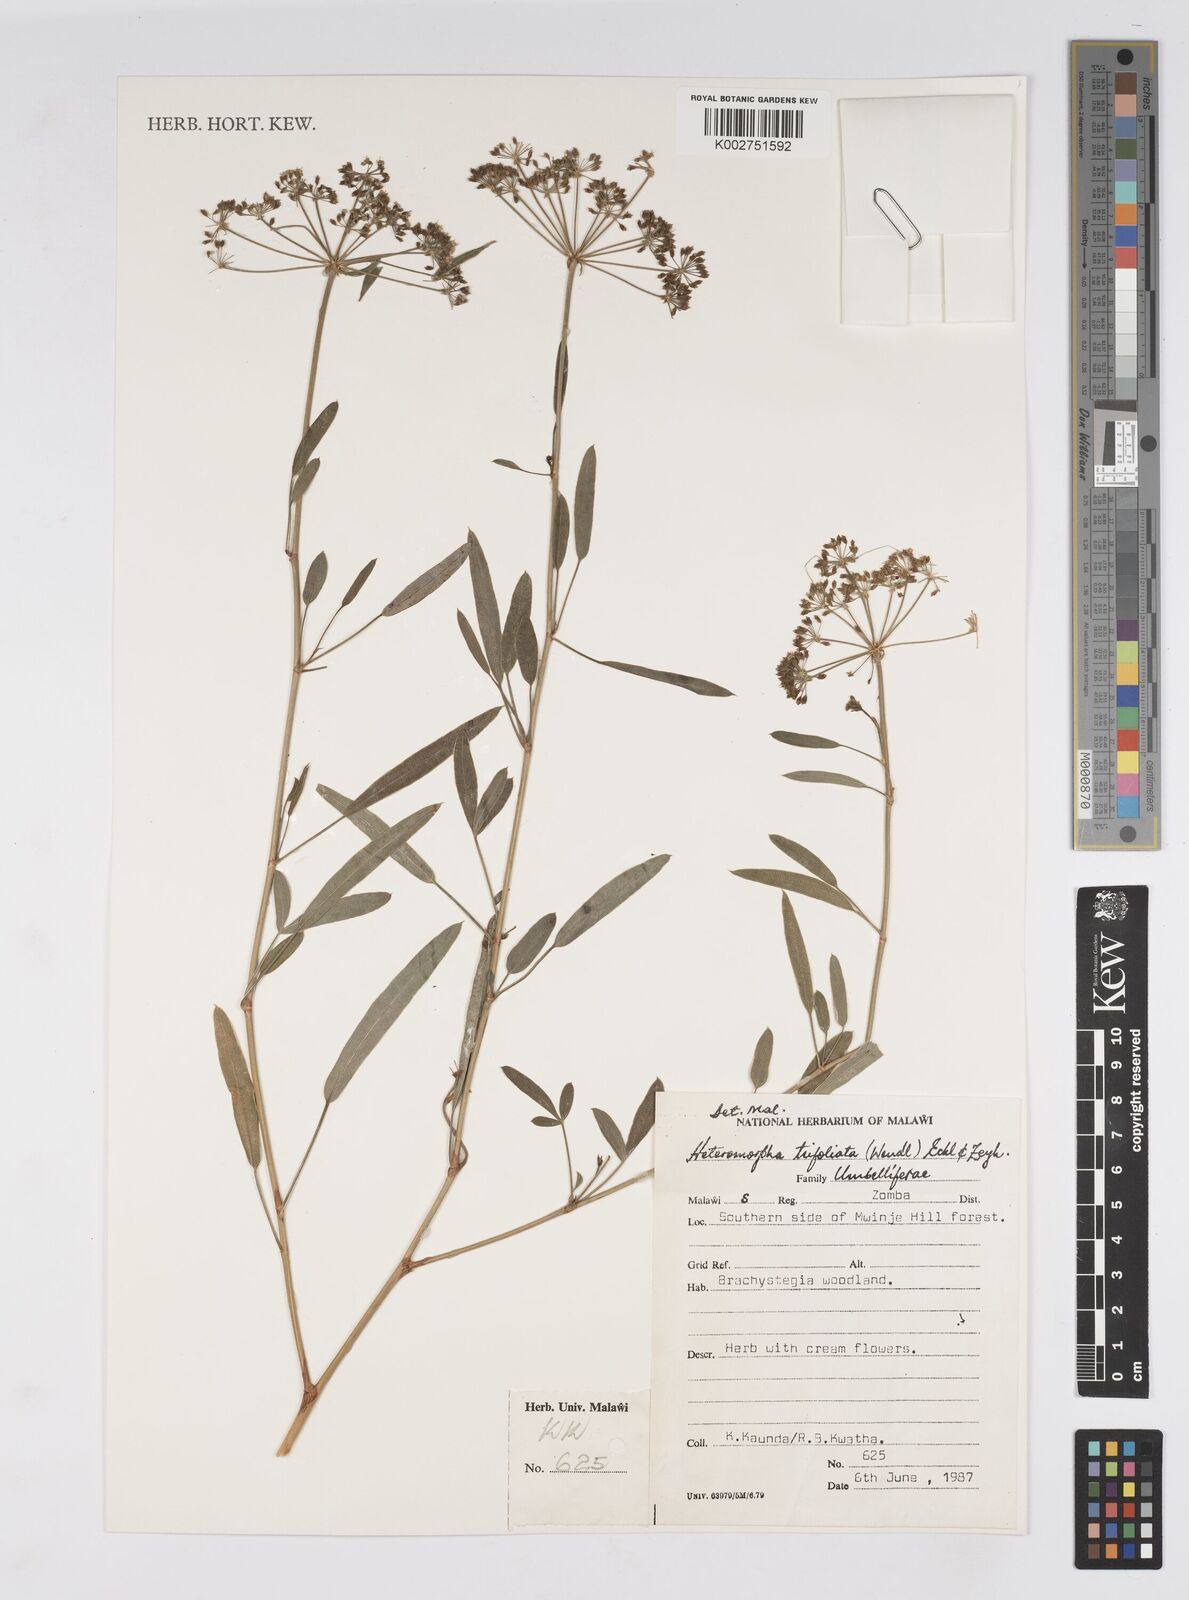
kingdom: Plantae
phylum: Tracheophyta
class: Magnoliopsida
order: Apiales
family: Apiaceae
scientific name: Apiaceae
